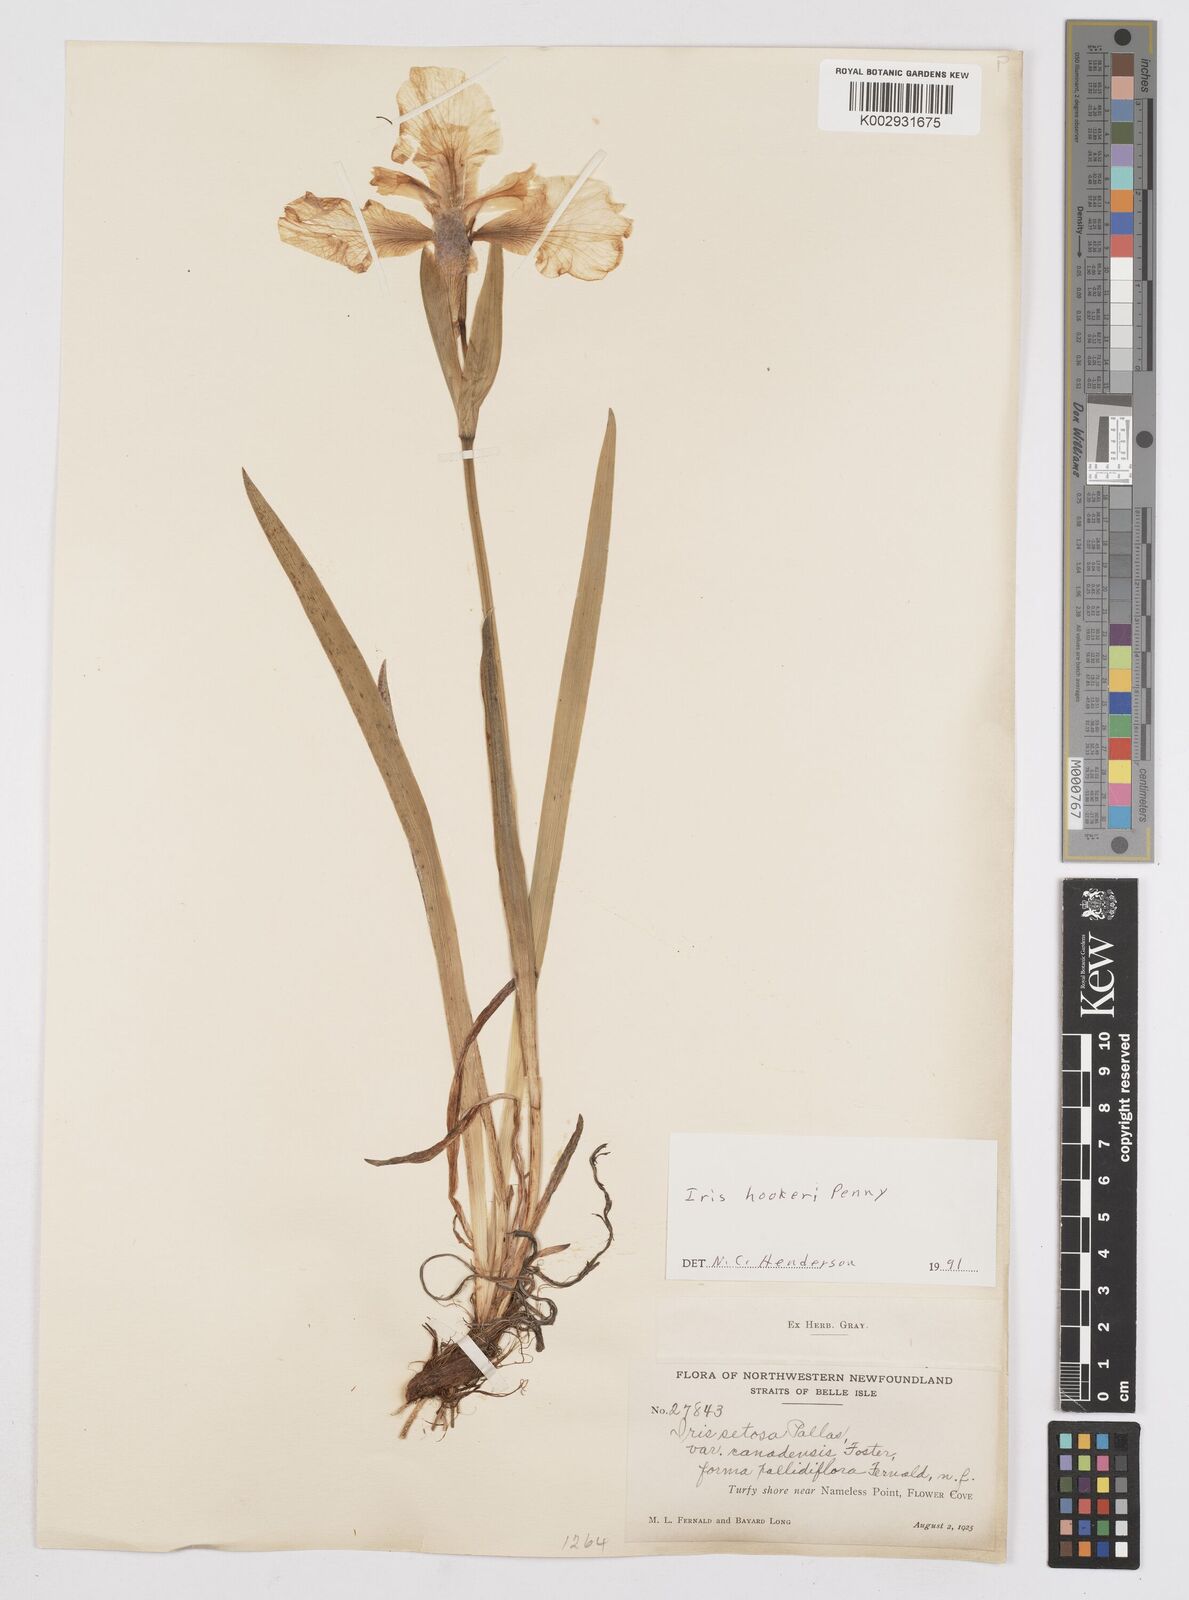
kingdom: Plantae
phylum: Tracheophyta
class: Liliopsida
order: Asparagales
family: Iridaceae
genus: Iris
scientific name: Iris setosa
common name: Arctic blue flag
